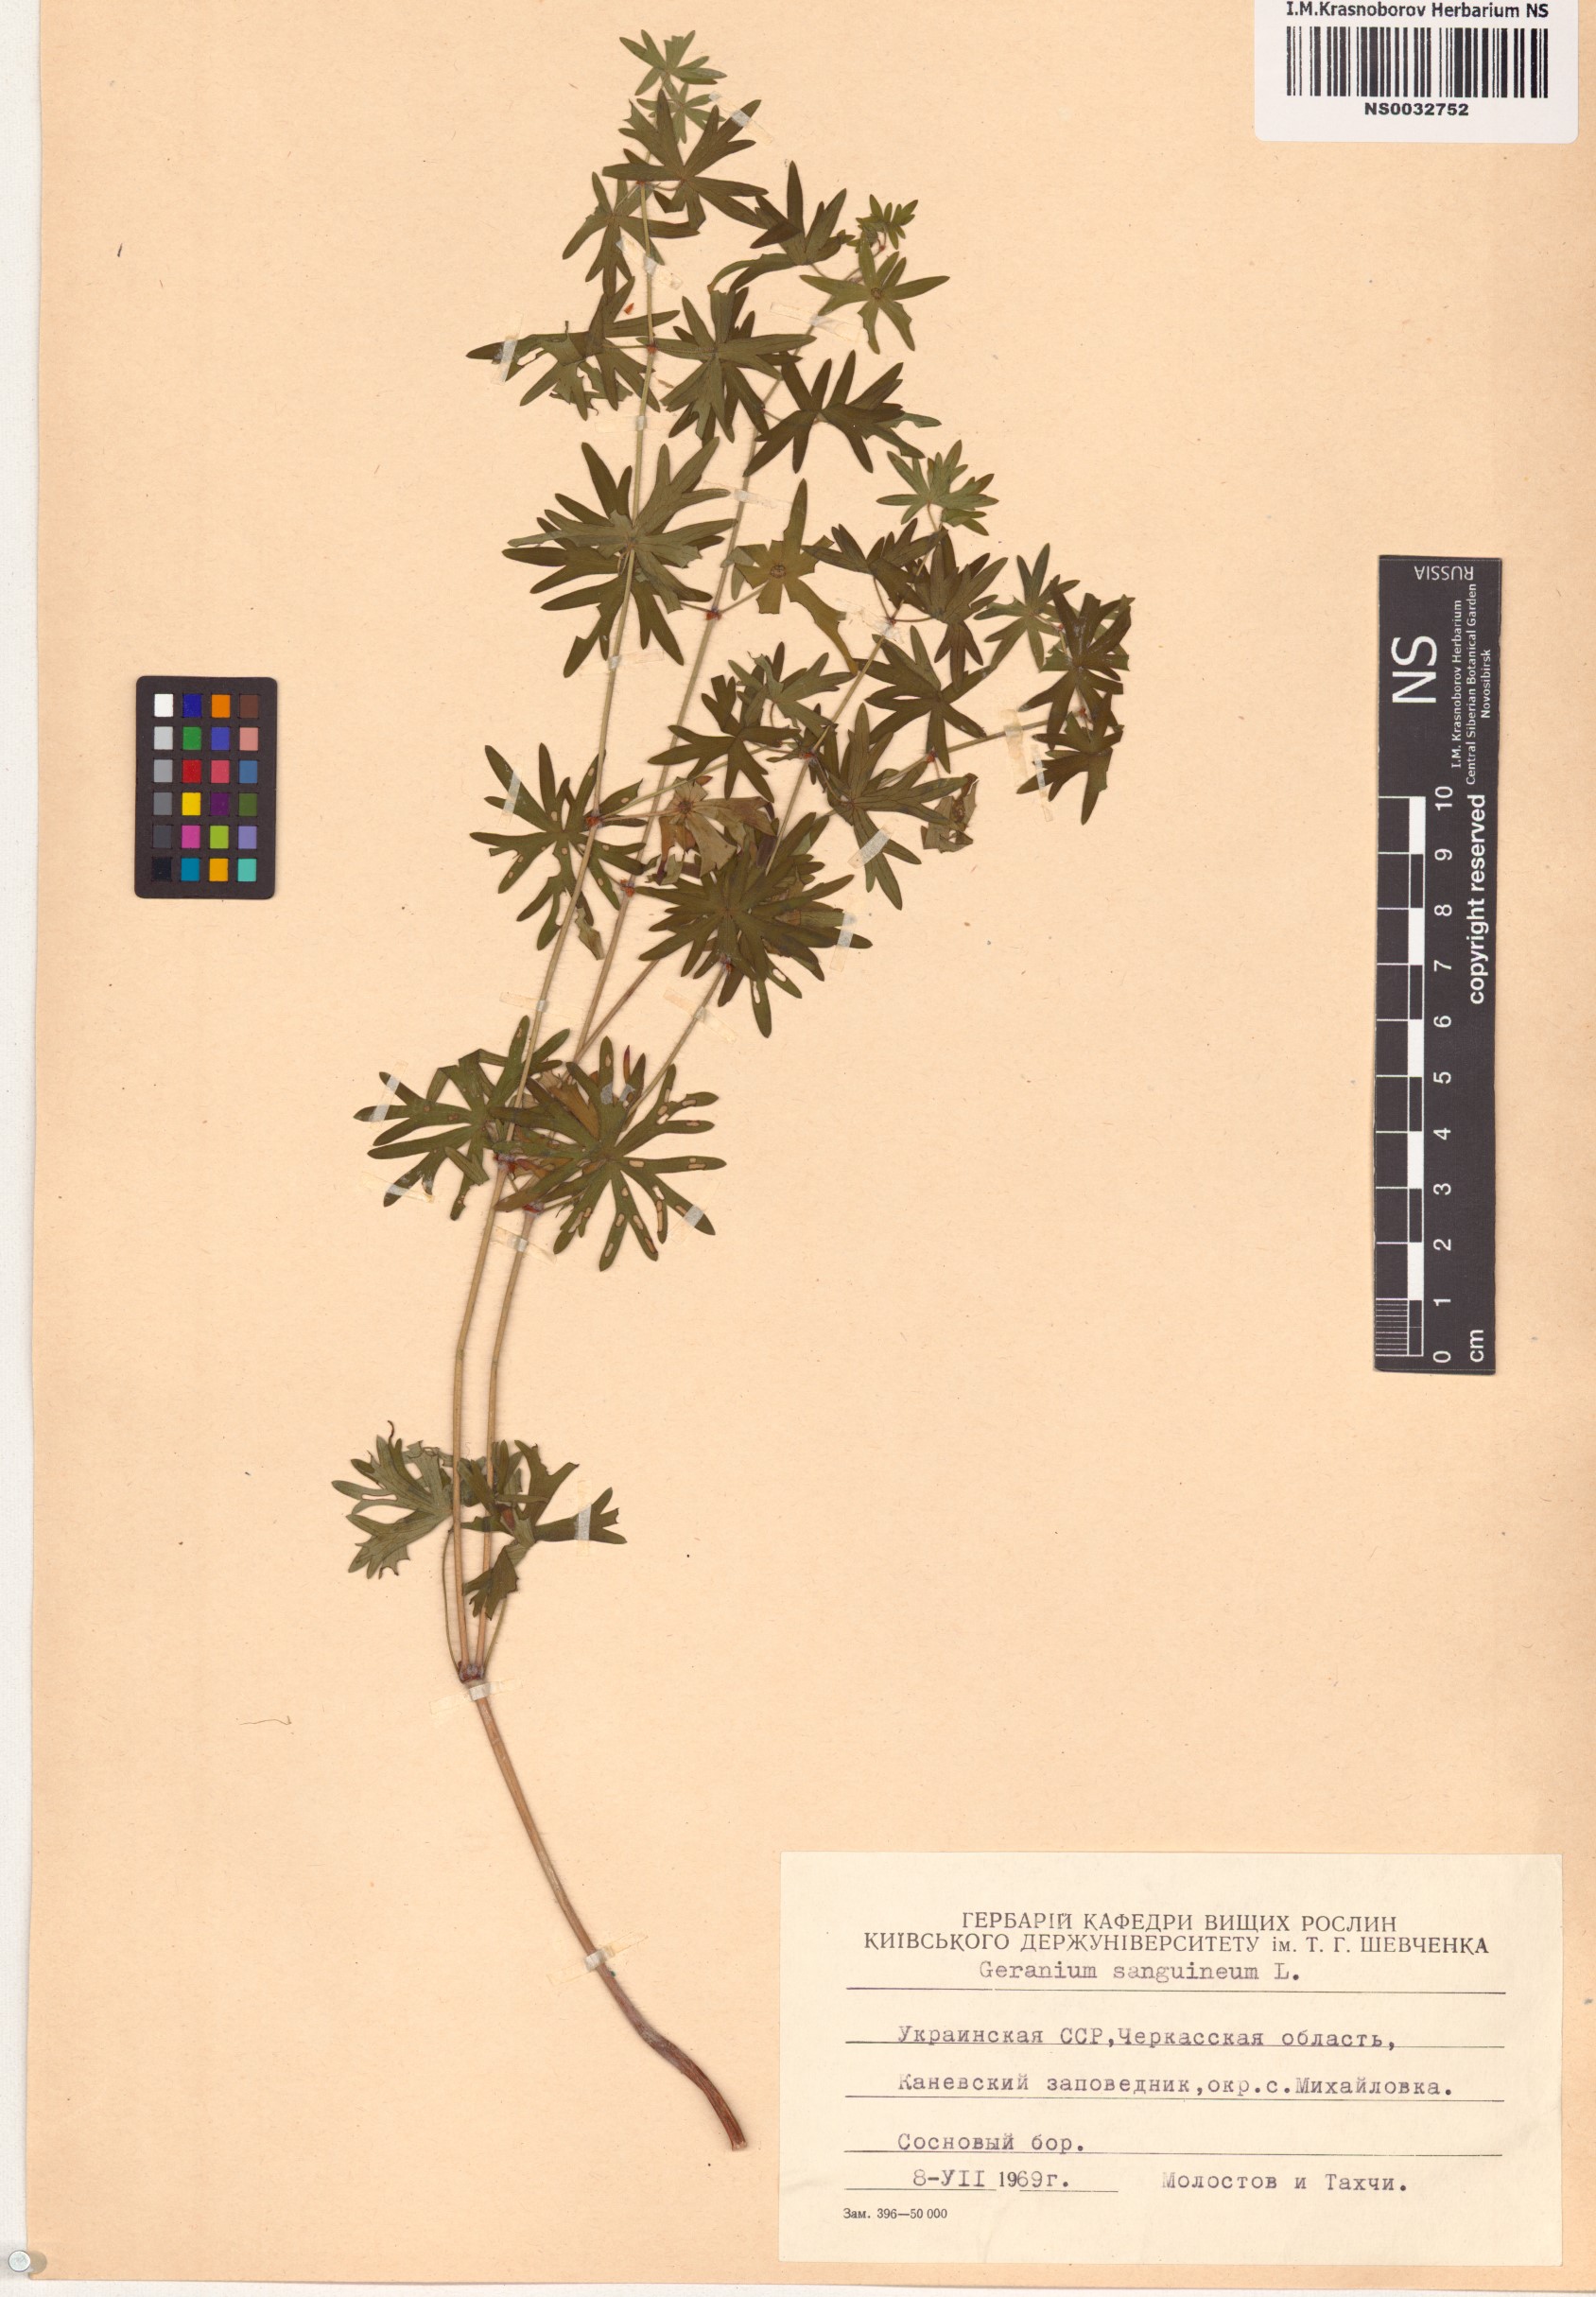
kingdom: Plantae
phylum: Tracheophyta
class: Magnoliopsida
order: Geraniales
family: Geraniaceae
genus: Geranium
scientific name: Geranium sanguineum
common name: Bloody crane's-bill
